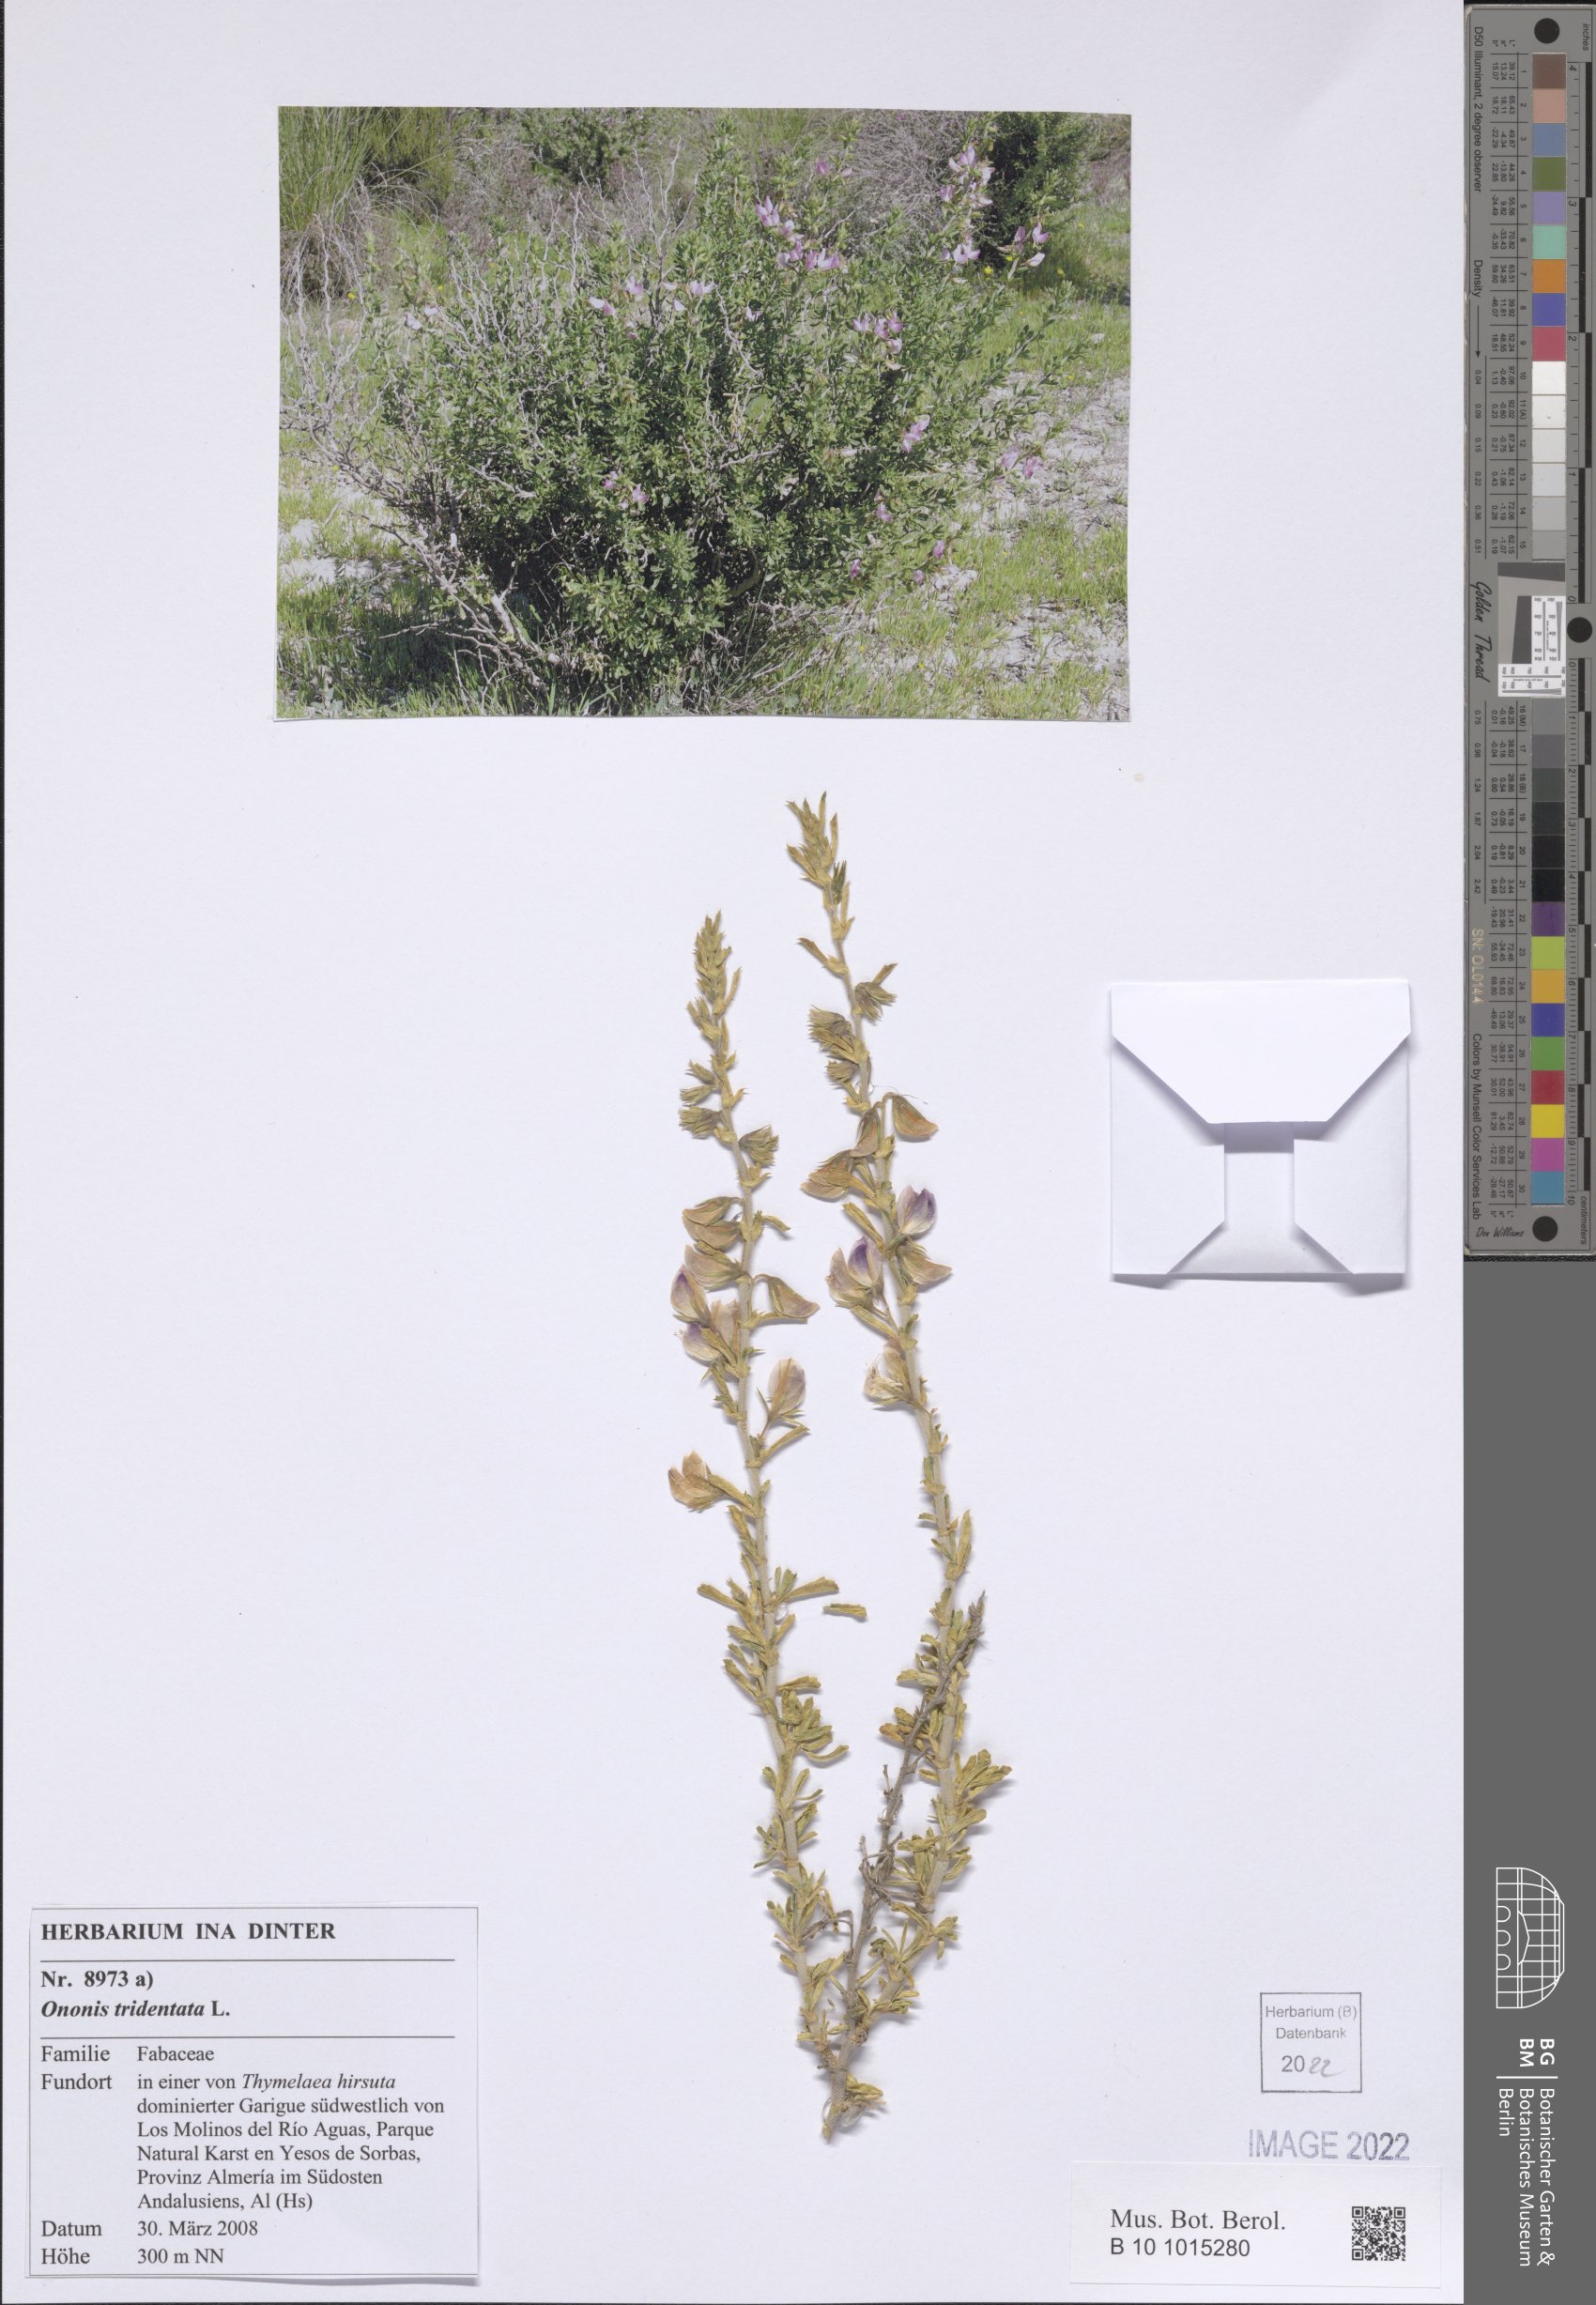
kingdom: Plantae
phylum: Tracheophyta
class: Magnoliopsida
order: Fabales
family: Fabaceae
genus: Ononis
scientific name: Ononis tridentata
